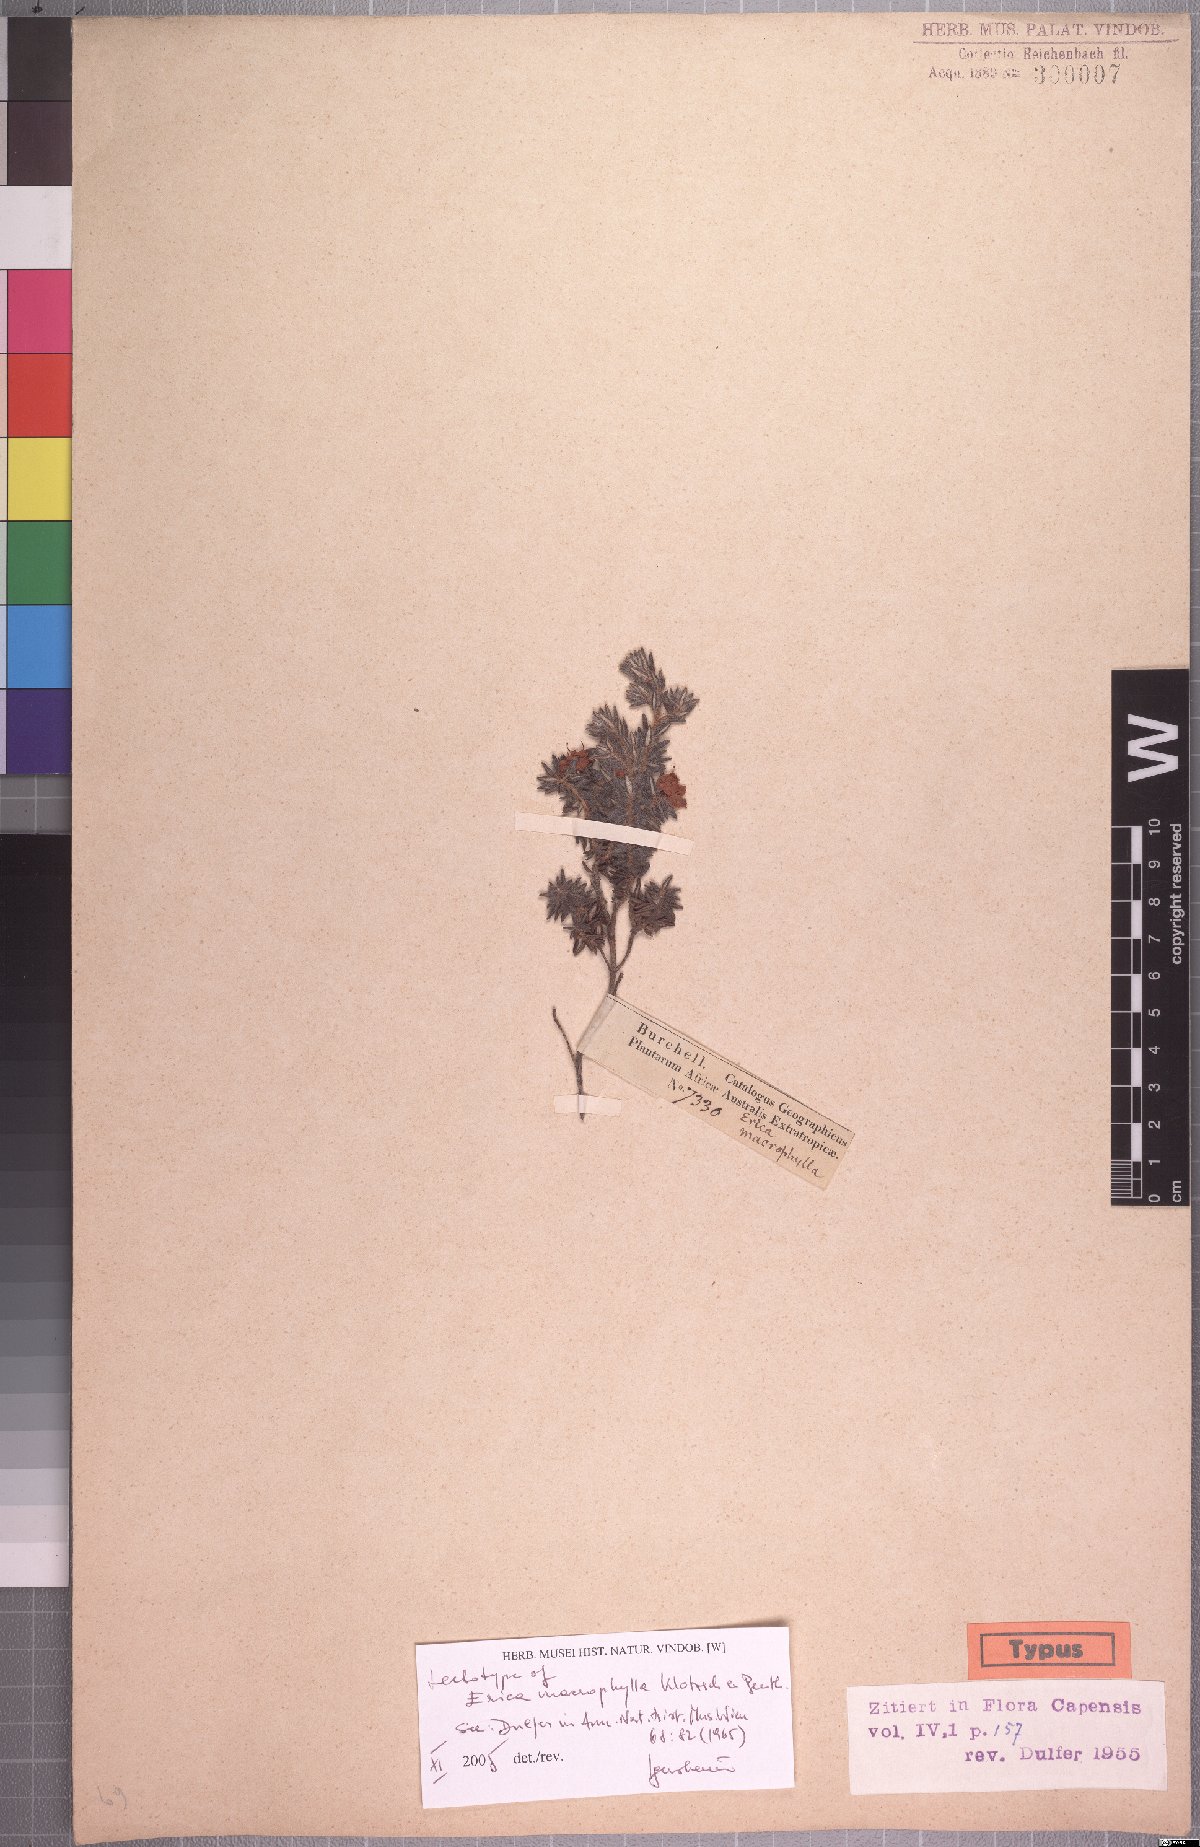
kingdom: Plantae
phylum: Tracheophyta
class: Magnoliopsida
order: Ericales
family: Ericaceae
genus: Erica
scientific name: Erica macrophylla
